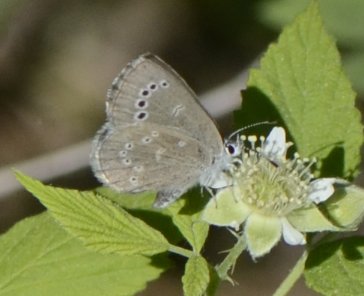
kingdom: Animalia
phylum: Arthropoda
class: Insecta
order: Lepidoptera
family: Lycaenidae
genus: Glaucopsyche
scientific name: Glaucopsyche lygdamus
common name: Silvery Blue
